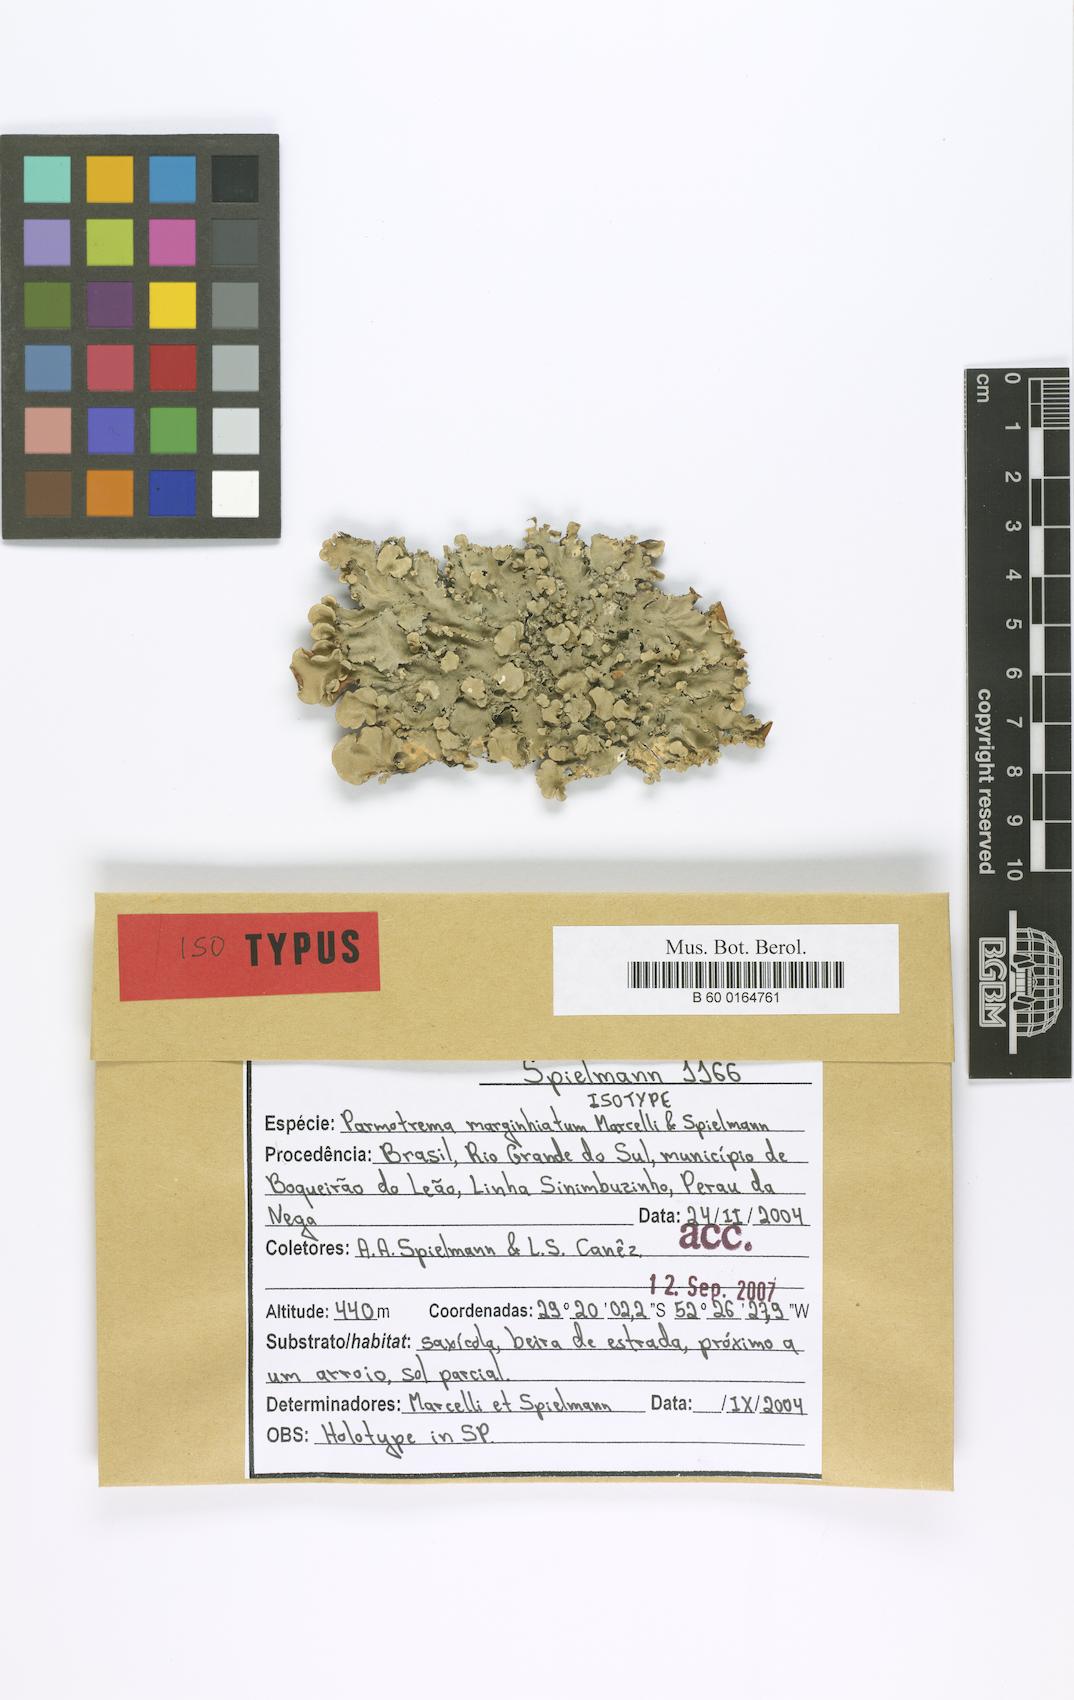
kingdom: Fungi
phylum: Ascomycota
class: Lecanoromycetes
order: Lecanorales
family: Parmeliaceae
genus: Parmotrema
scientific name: Parmotrema
